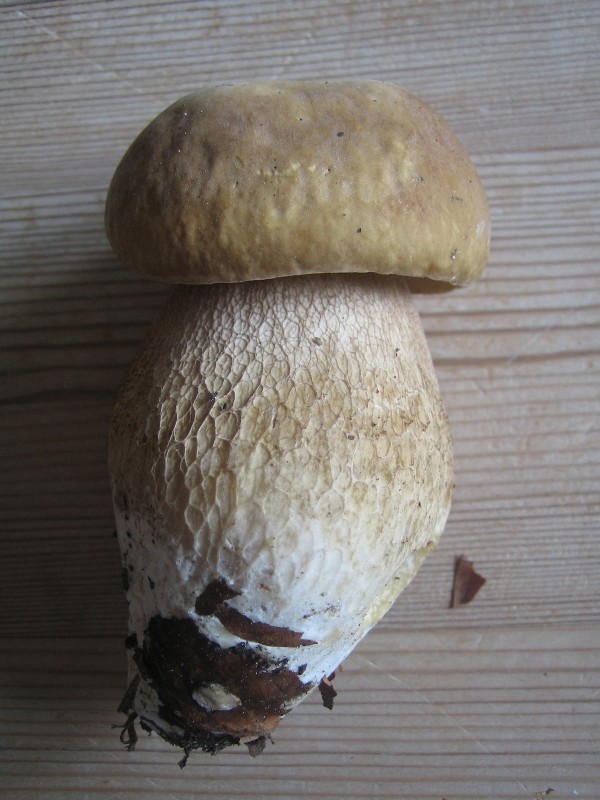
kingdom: Fungi
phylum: Basidiomycota
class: Agaricomycetes
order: Boletales
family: Boletaceae
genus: Boletus
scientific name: Boletus reticulatus
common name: sommer-rørhat
